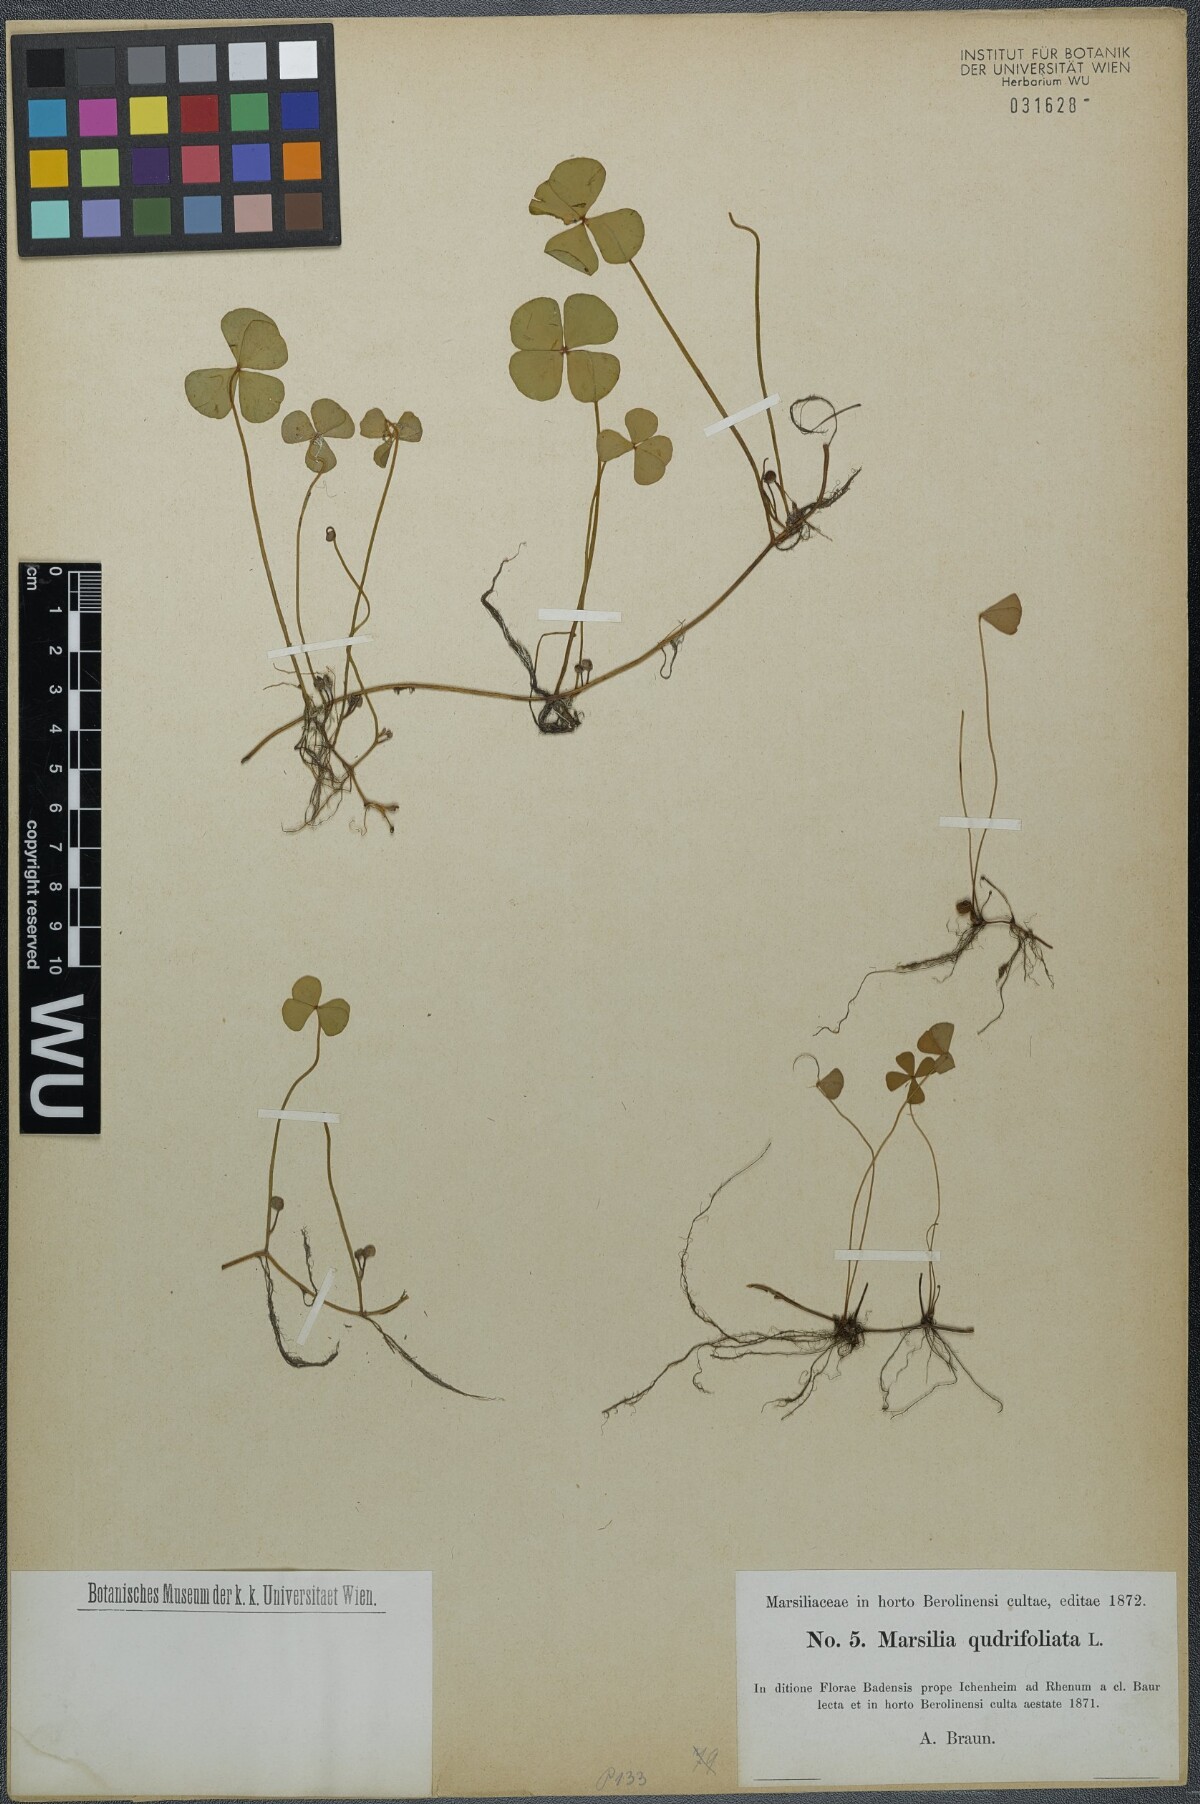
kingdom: Plantae
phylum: Tracheophyta
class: Polypodiopsida
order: Salviniales
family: Marsileaceae
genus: Marsilea
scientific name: Marsilea quadrifolia
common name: Water shamrock
